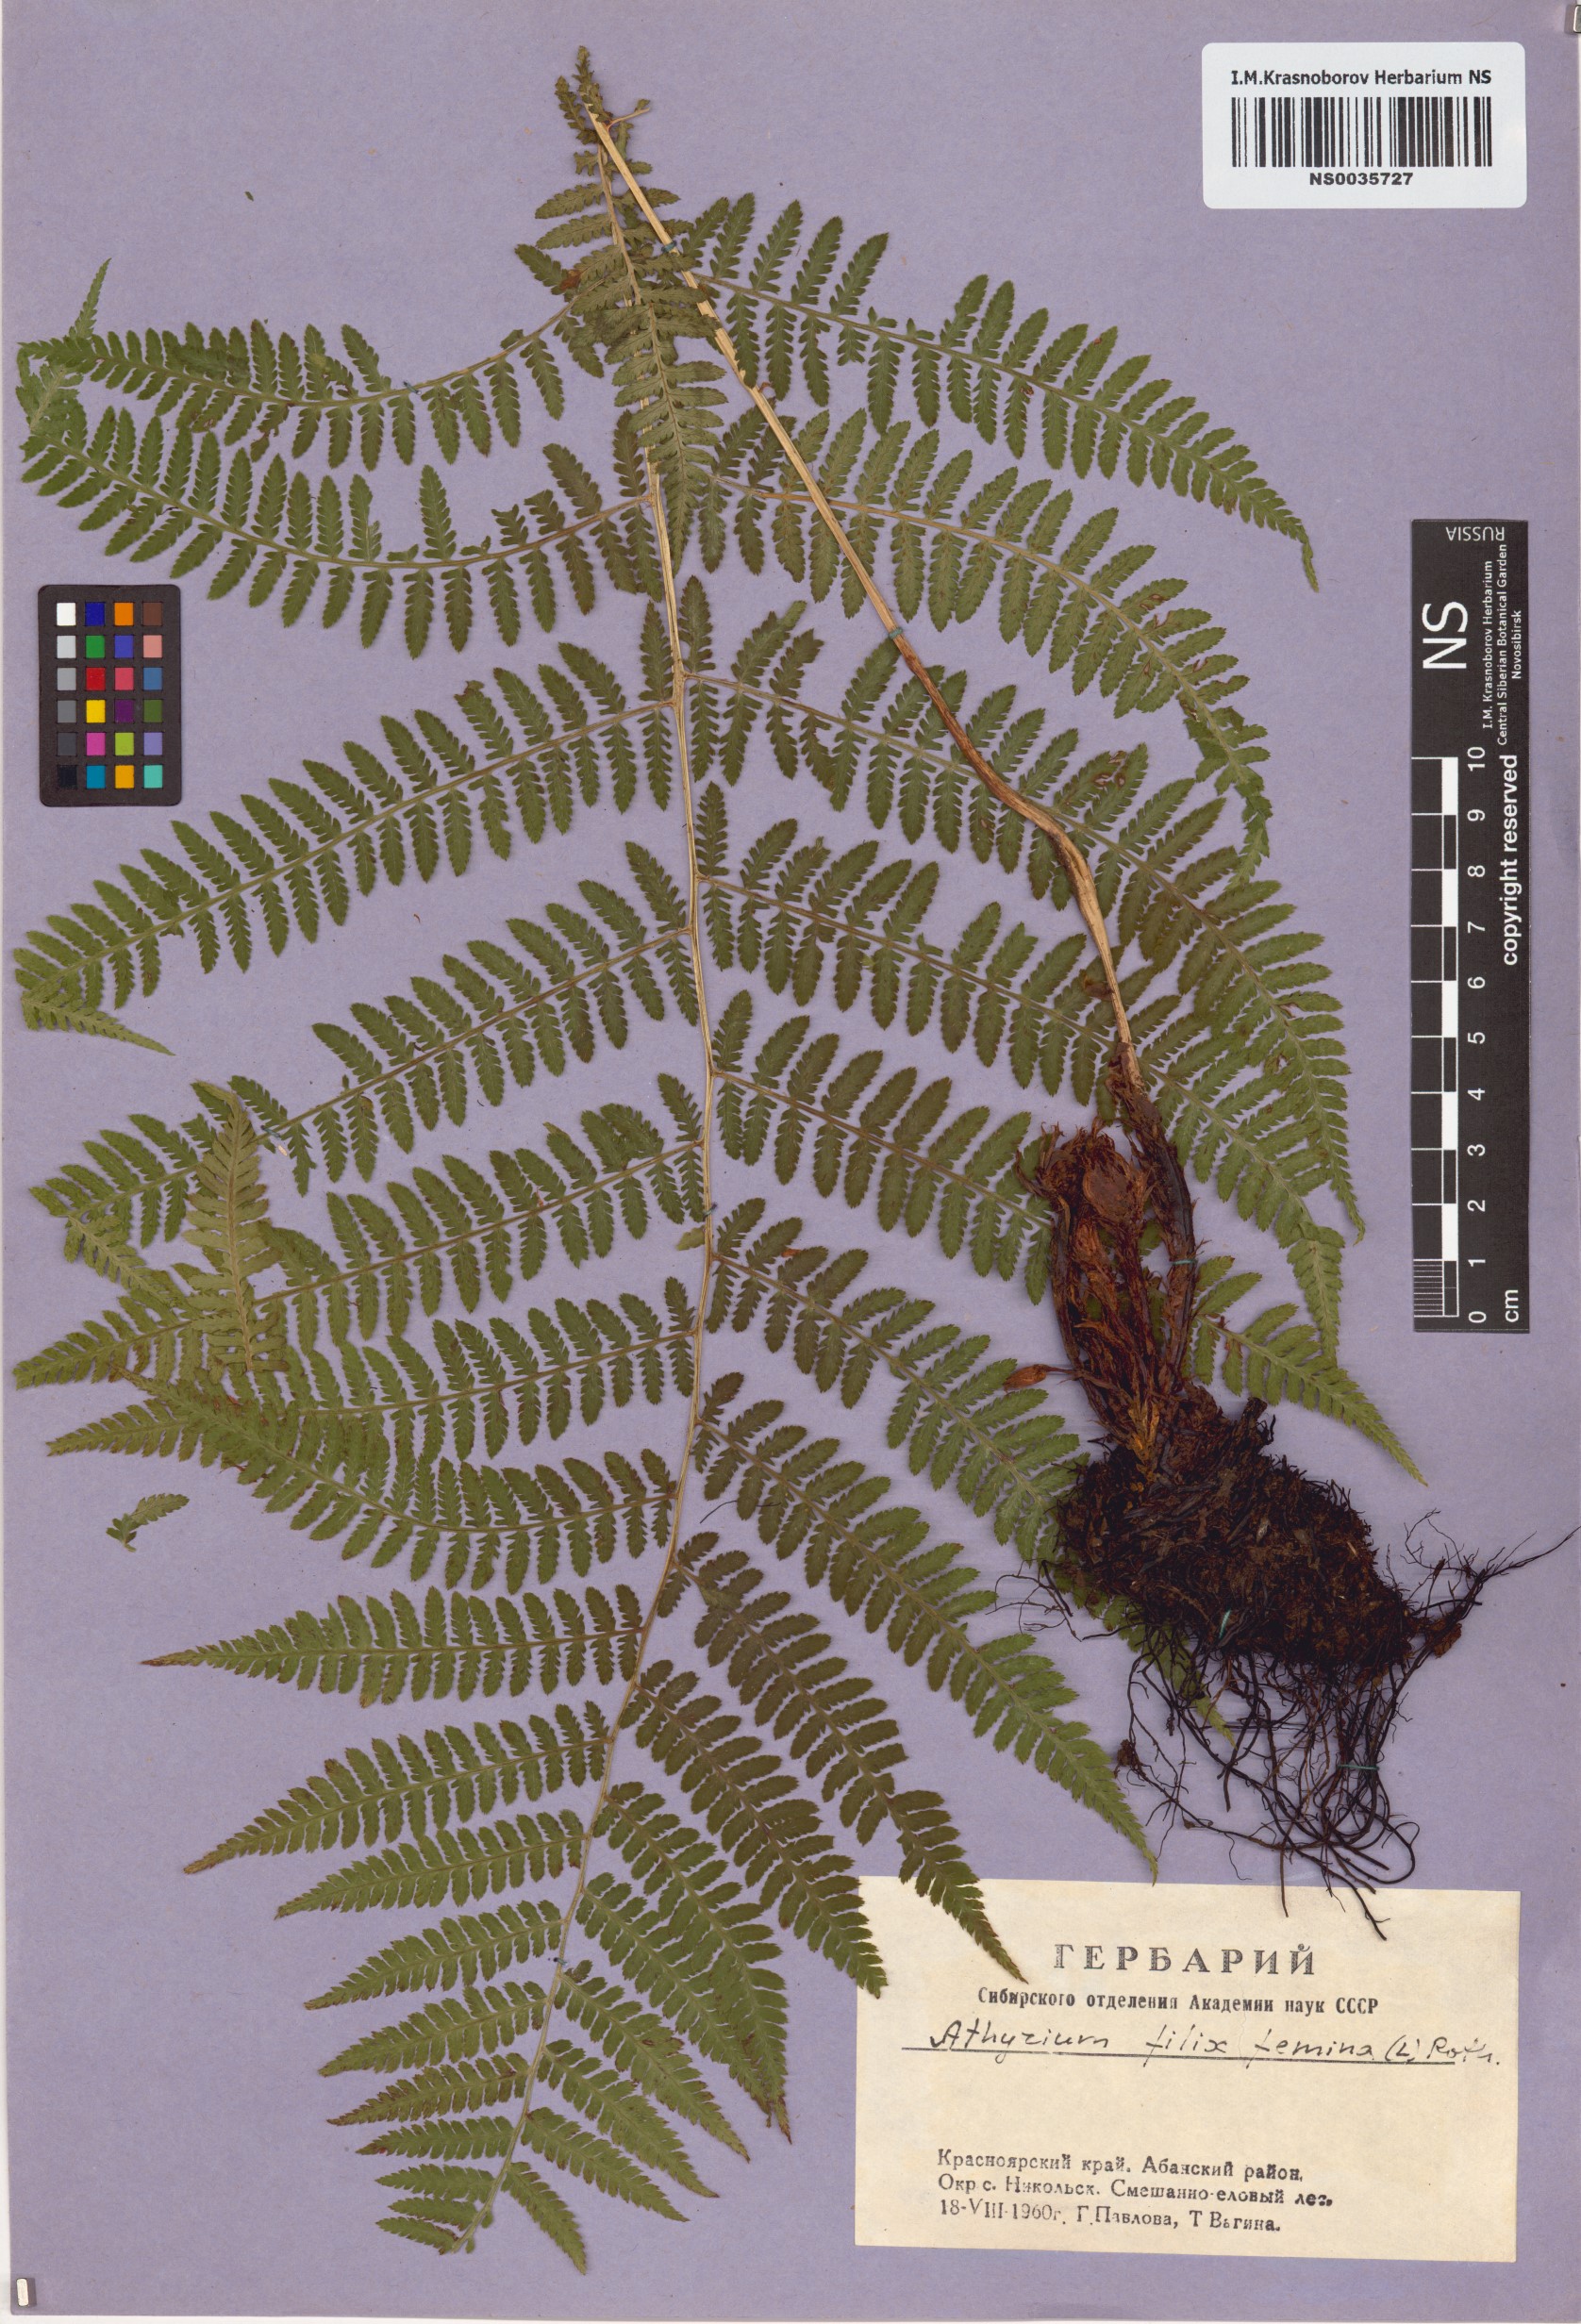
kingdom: Plantae
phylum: Tracheophyta
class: Polypodiopsida
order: Polypodiales
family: Athyriaceae
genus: Athyrium
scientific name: Athyrium filix-femina
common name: Lady fern
